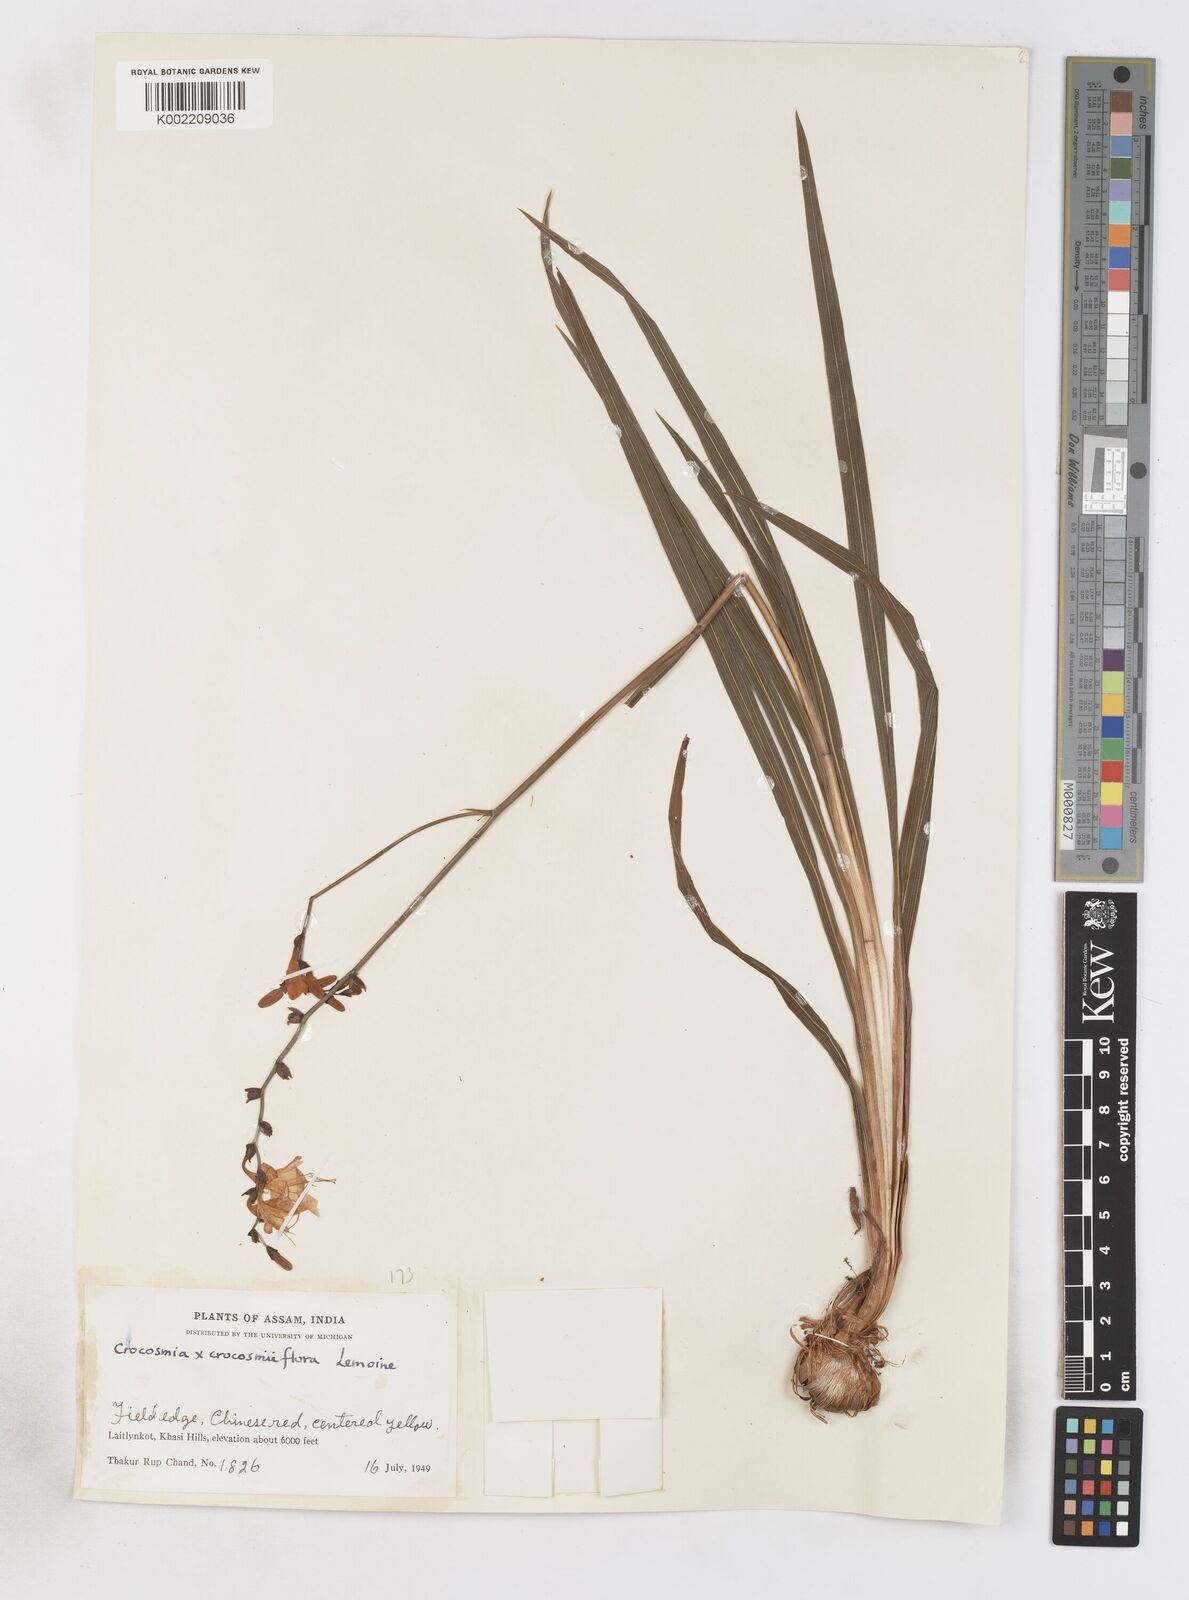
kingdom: Plantae
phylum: Tracheophyta
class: Liliopsida
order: Asparagales
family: Iridaceae
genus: Crocosmia
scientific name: Crocosmia crocosmiiflora
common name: Montbretia
